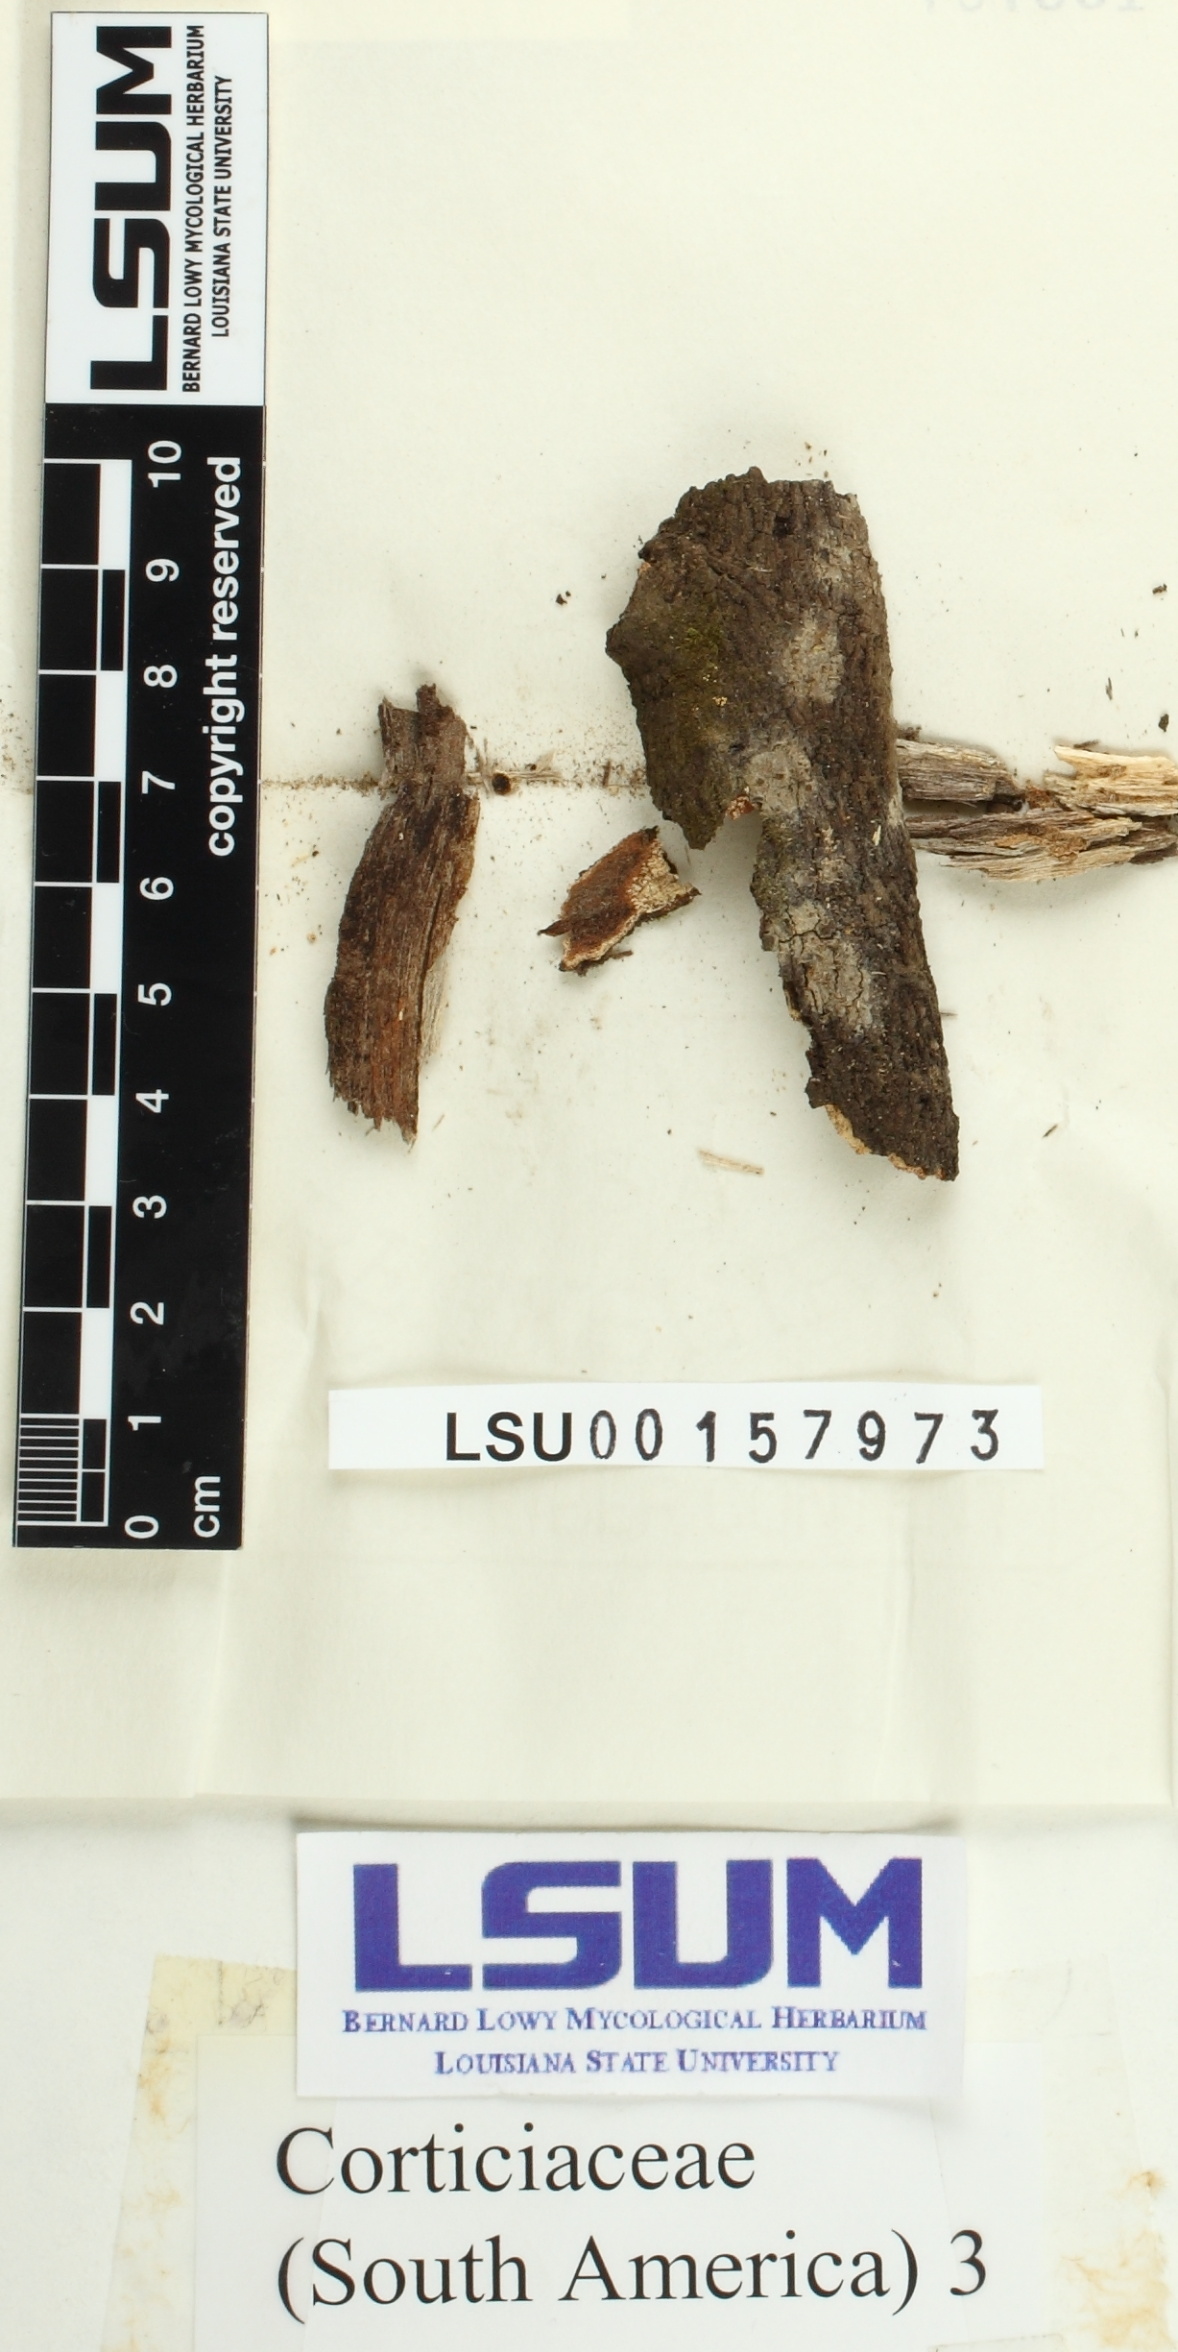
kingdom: Fungi
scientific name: Fungi
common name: Fungi
